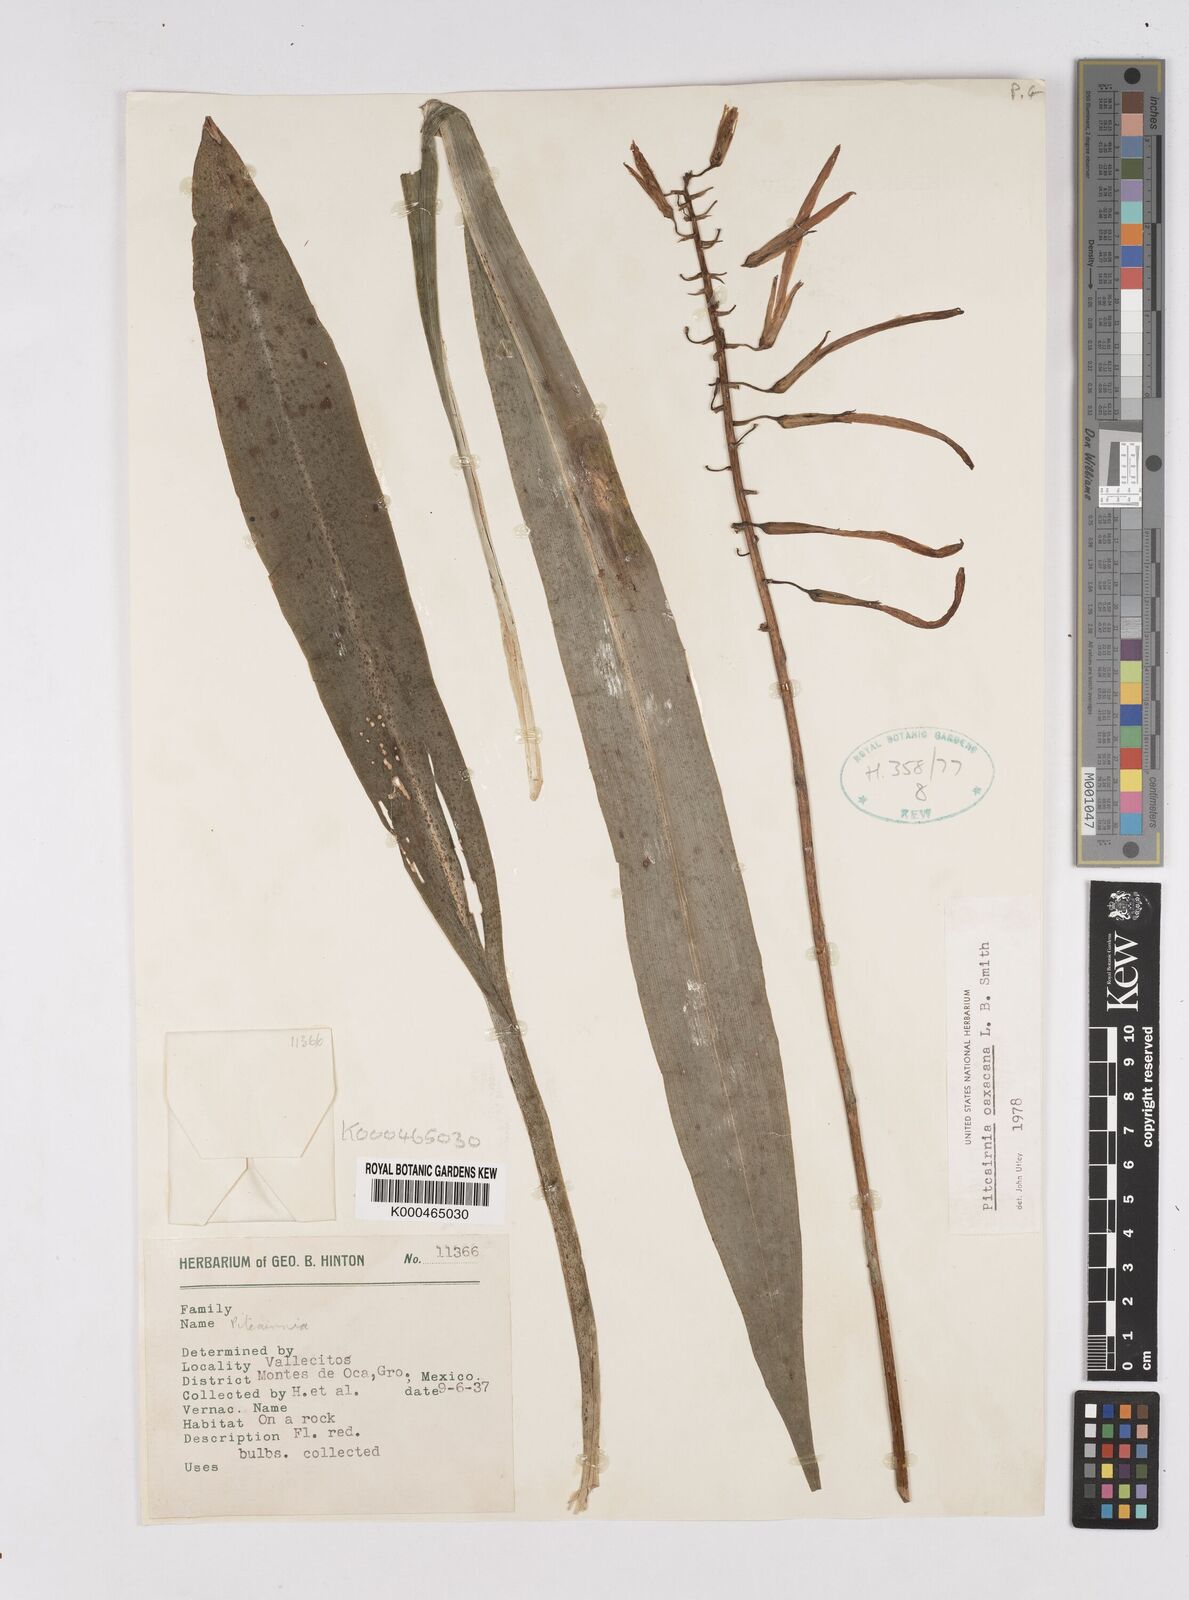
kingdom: Plantae
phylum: Tracheophyta
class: Liliopsida
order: Poales
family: Bromeliaceae
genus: Pitcairnia
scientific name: Pitcairnia oaxacana
